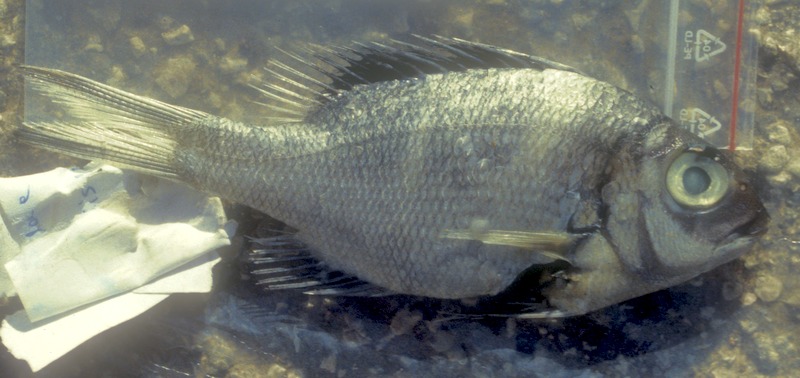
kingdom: Animalia
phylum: Chordata
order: Perciformes
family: Lethrinidae
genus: Monotaxis
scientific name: Monotaxis grandoculis
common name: Bigeye emperor
